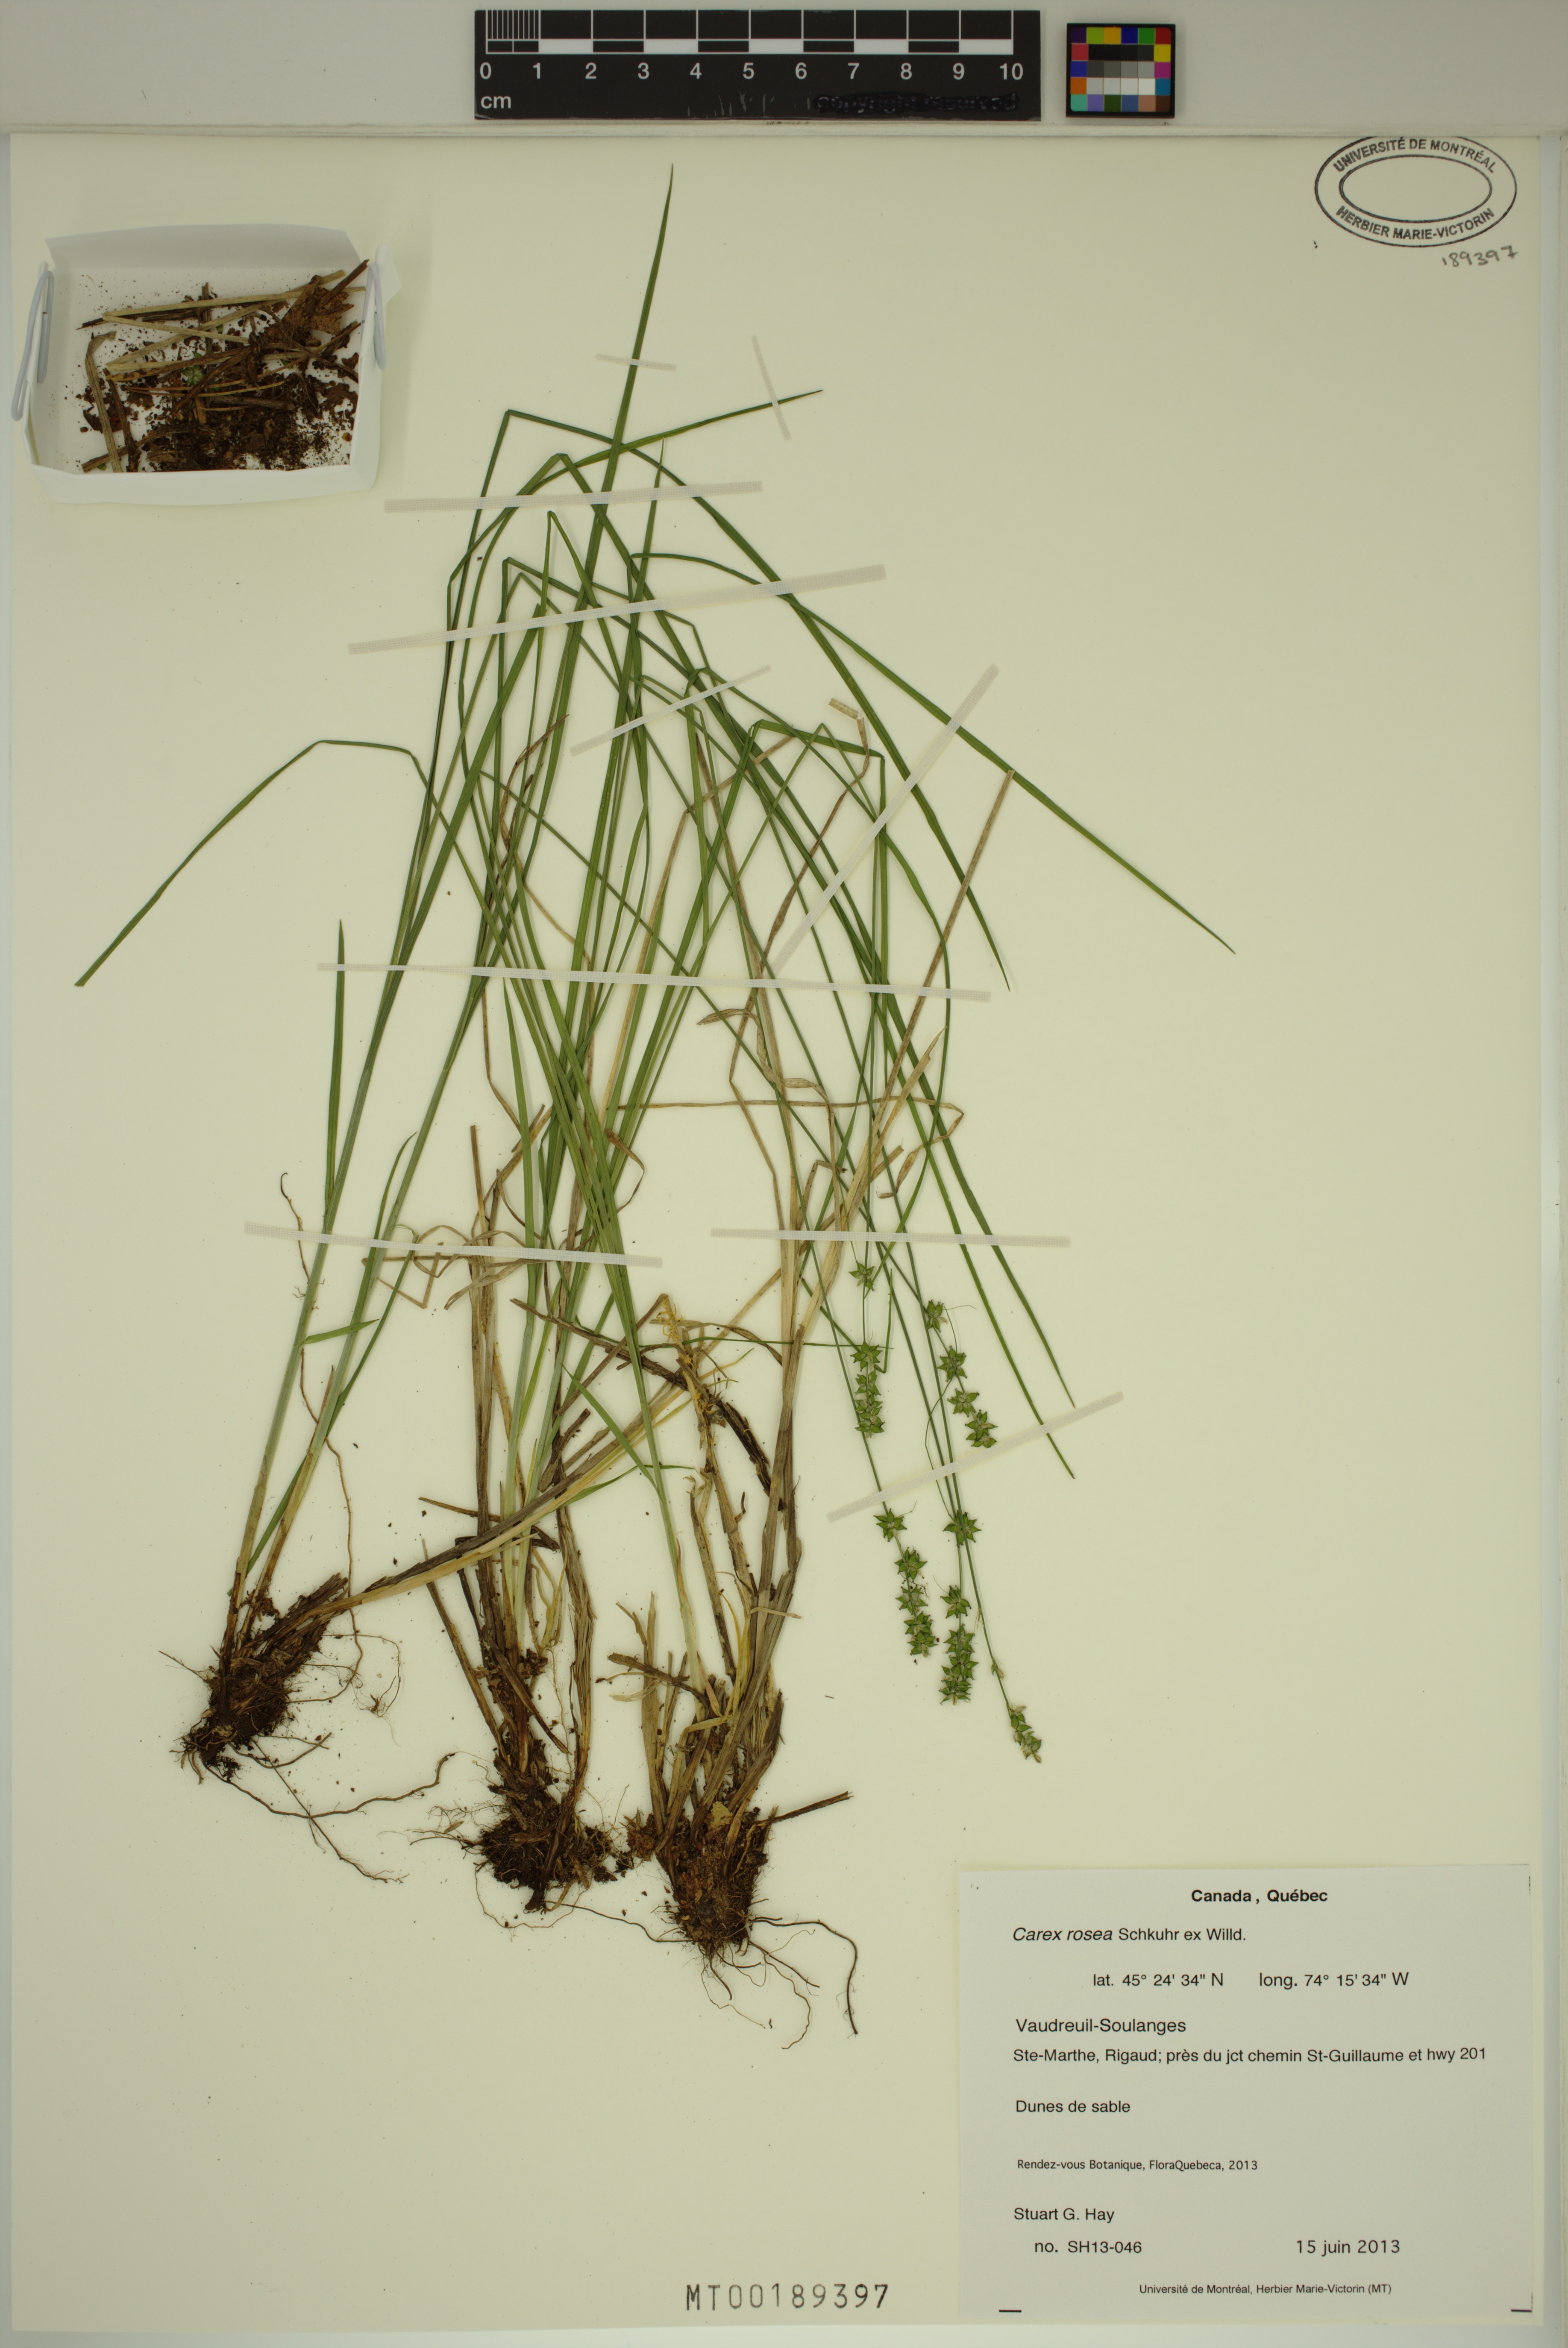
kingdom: Plantae
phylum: Tracheophyta
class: Liliopsida
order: Poales
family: Cyperaceae
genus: Carex
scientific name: Carex rosea
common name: Curly-styled wood sedge
